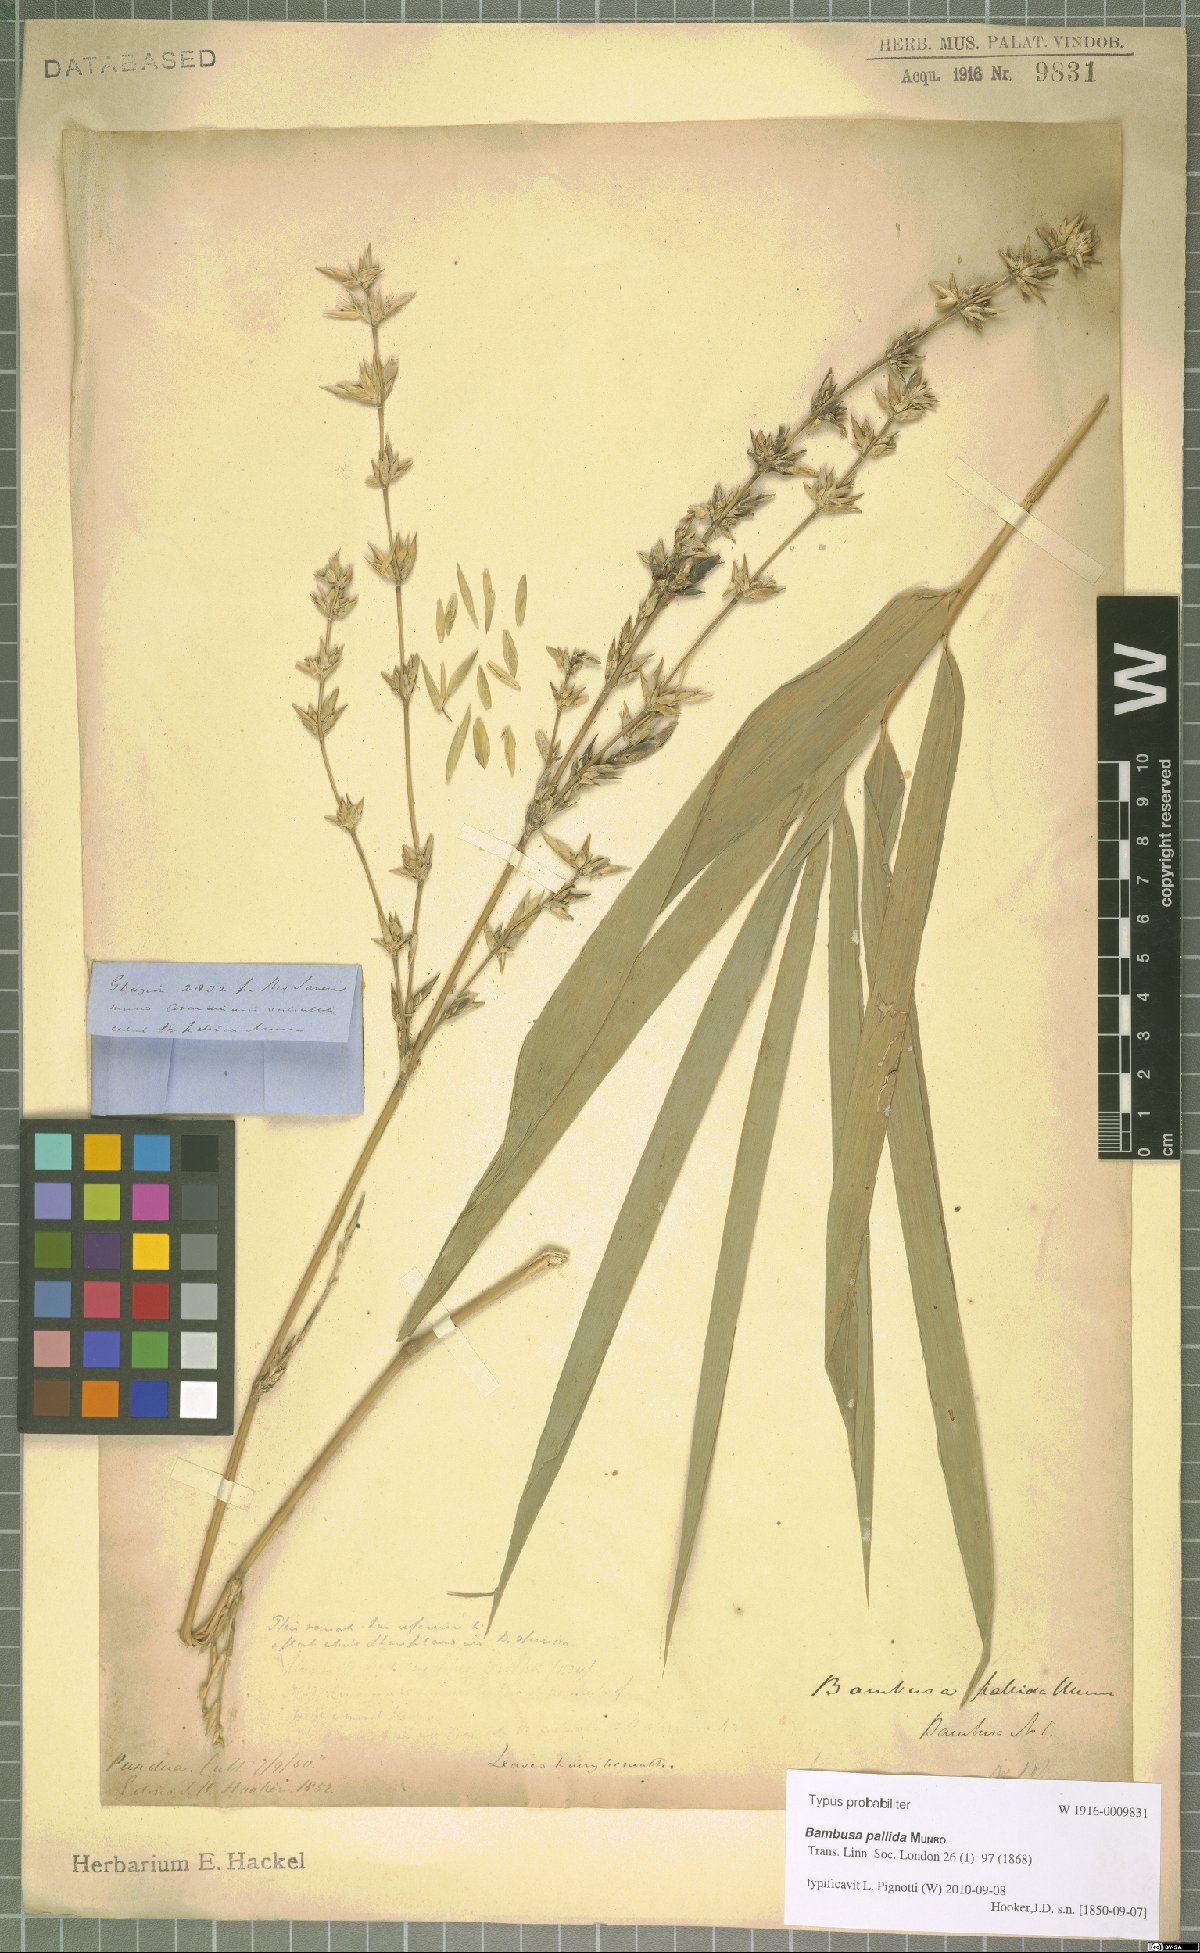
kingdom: Plantae
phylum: Tracheophyta
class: Liliopsida
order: Poales
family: Poaceae
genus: Bambusa
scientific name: Bambusa pallida
